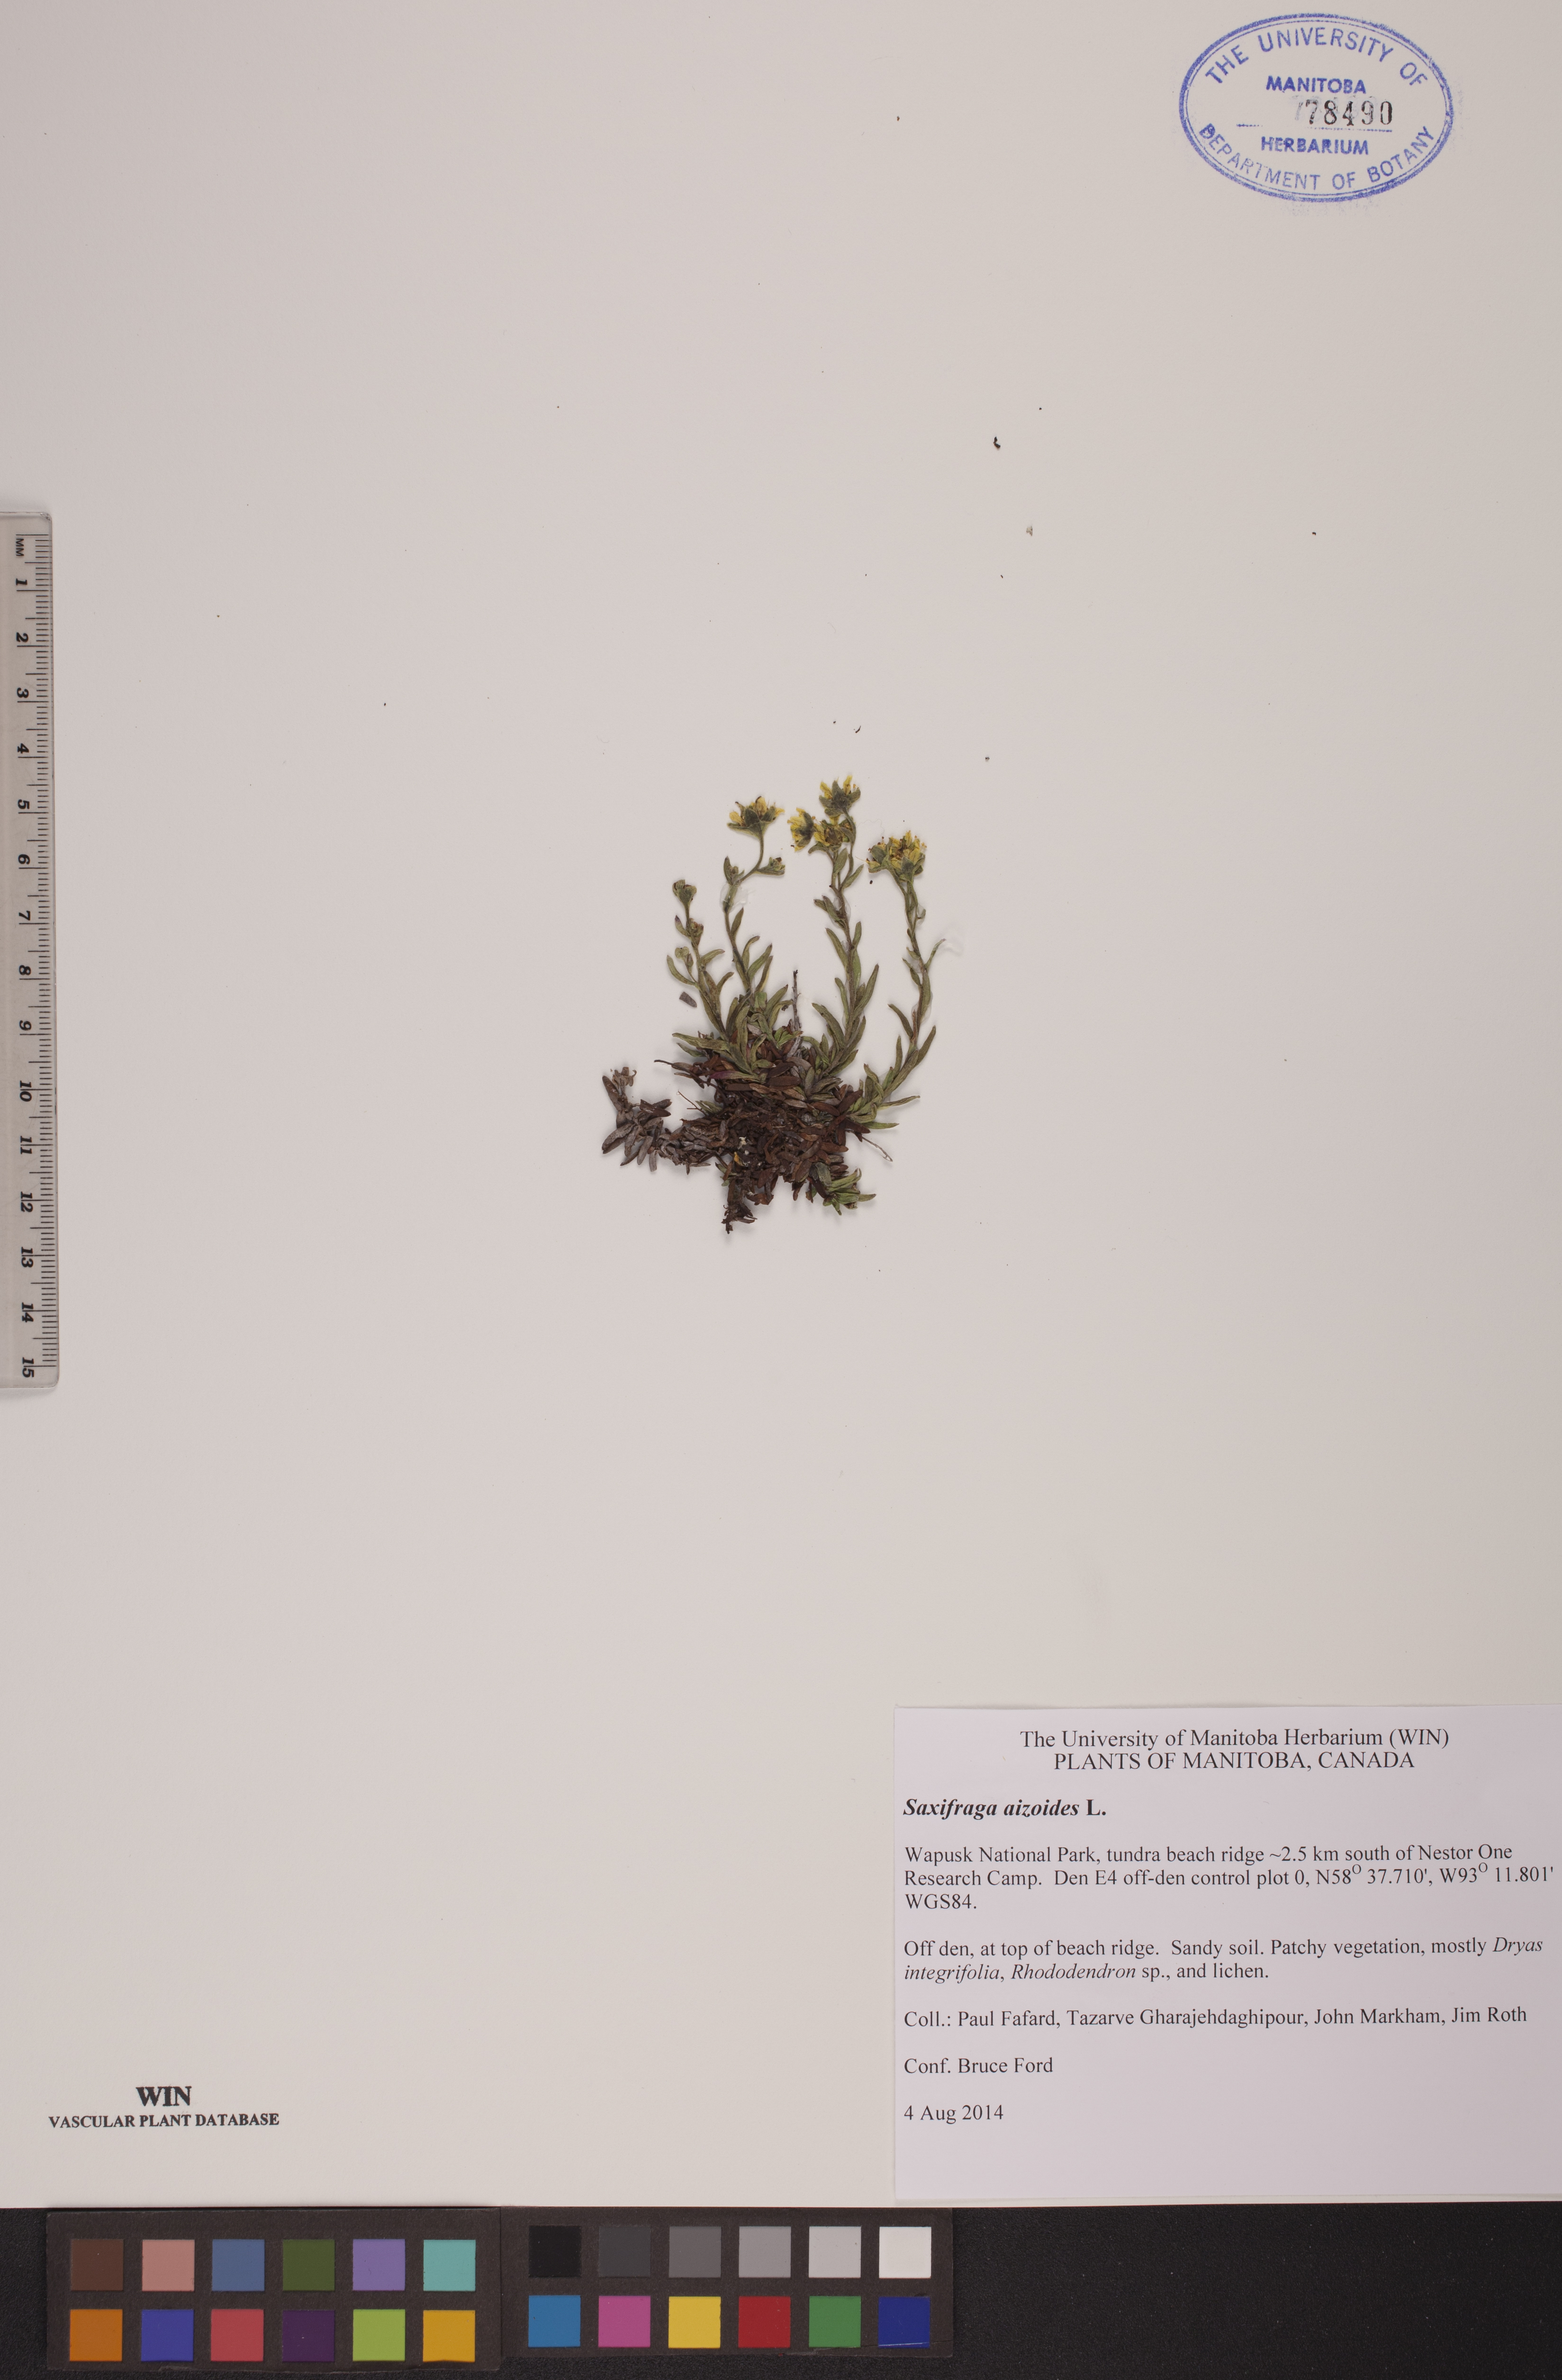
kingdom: Plantae
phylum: Tracheophyta
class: Magnoliopsida
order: Saxifragales
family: Saxifragaceae
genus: Saxifraga
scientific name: Saxifraga aizoides
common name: Yellow mountain saxifrage
